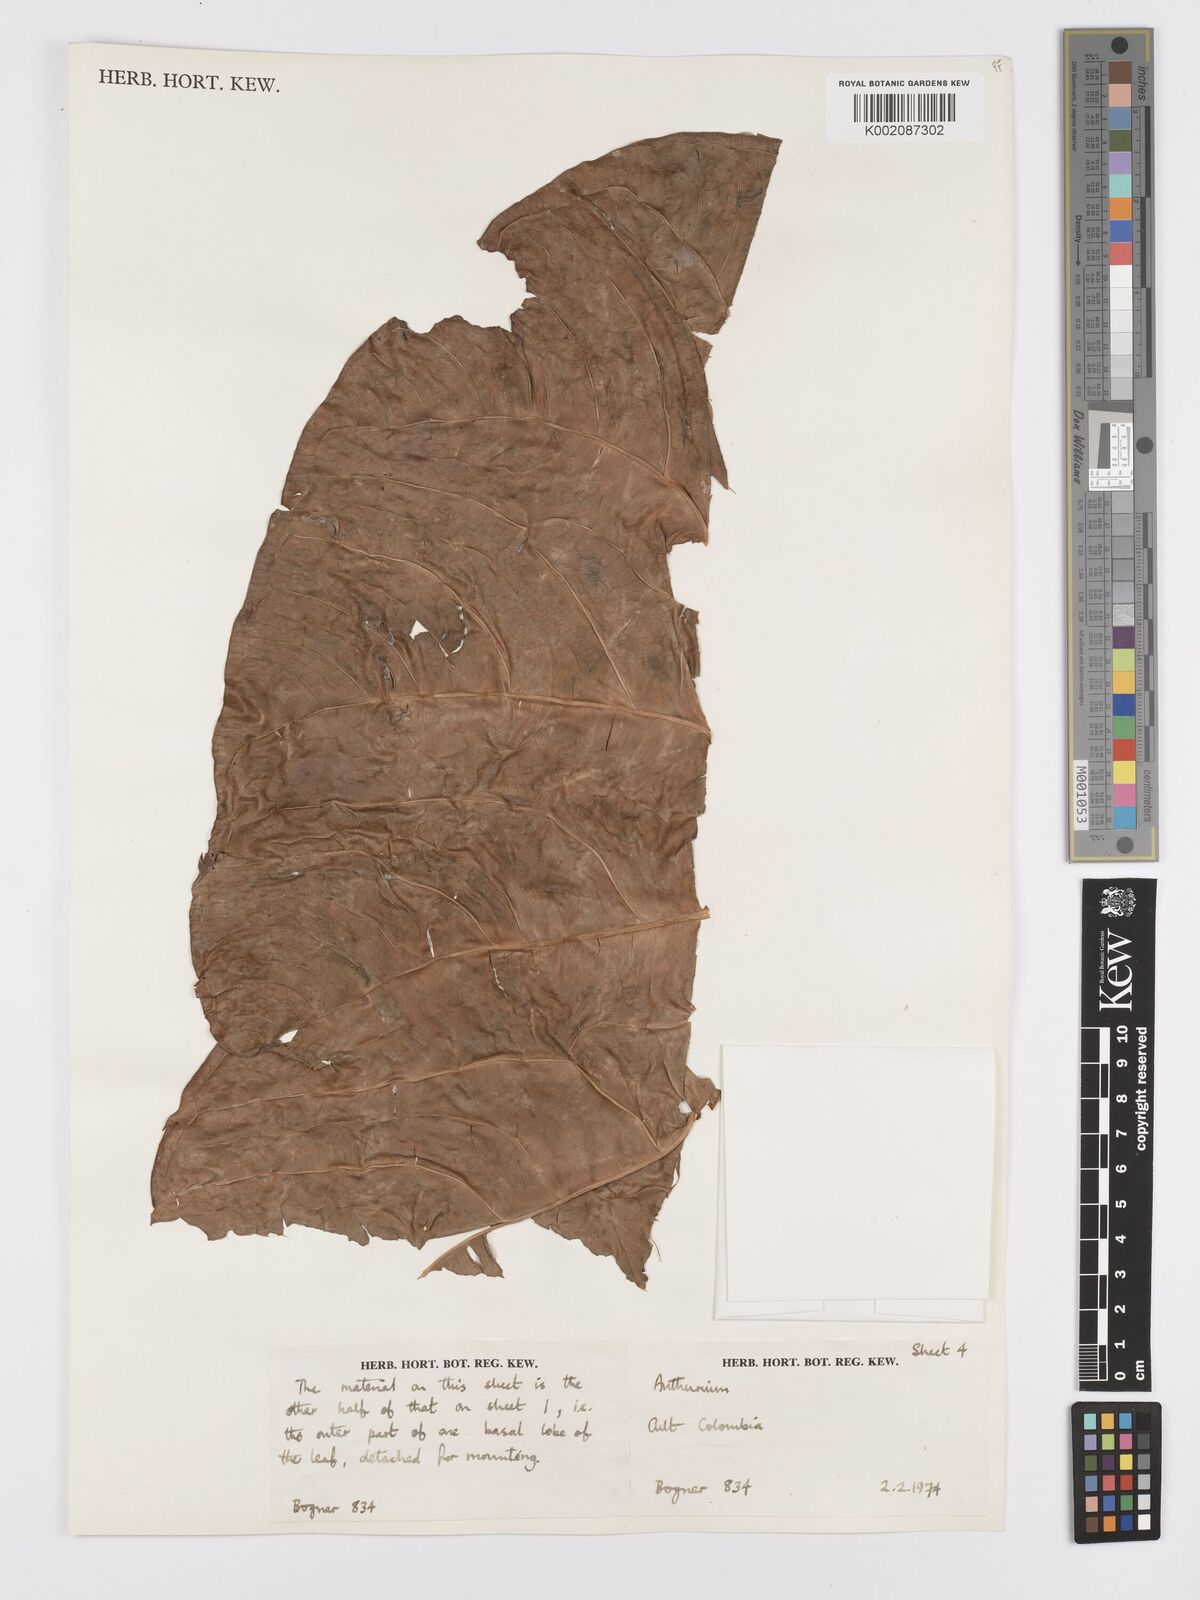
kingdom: Plantae
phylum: Tracheophyta
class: Liliopsida
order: Alismatales
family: Araceae
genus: Anthurium
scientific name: Anthurium
